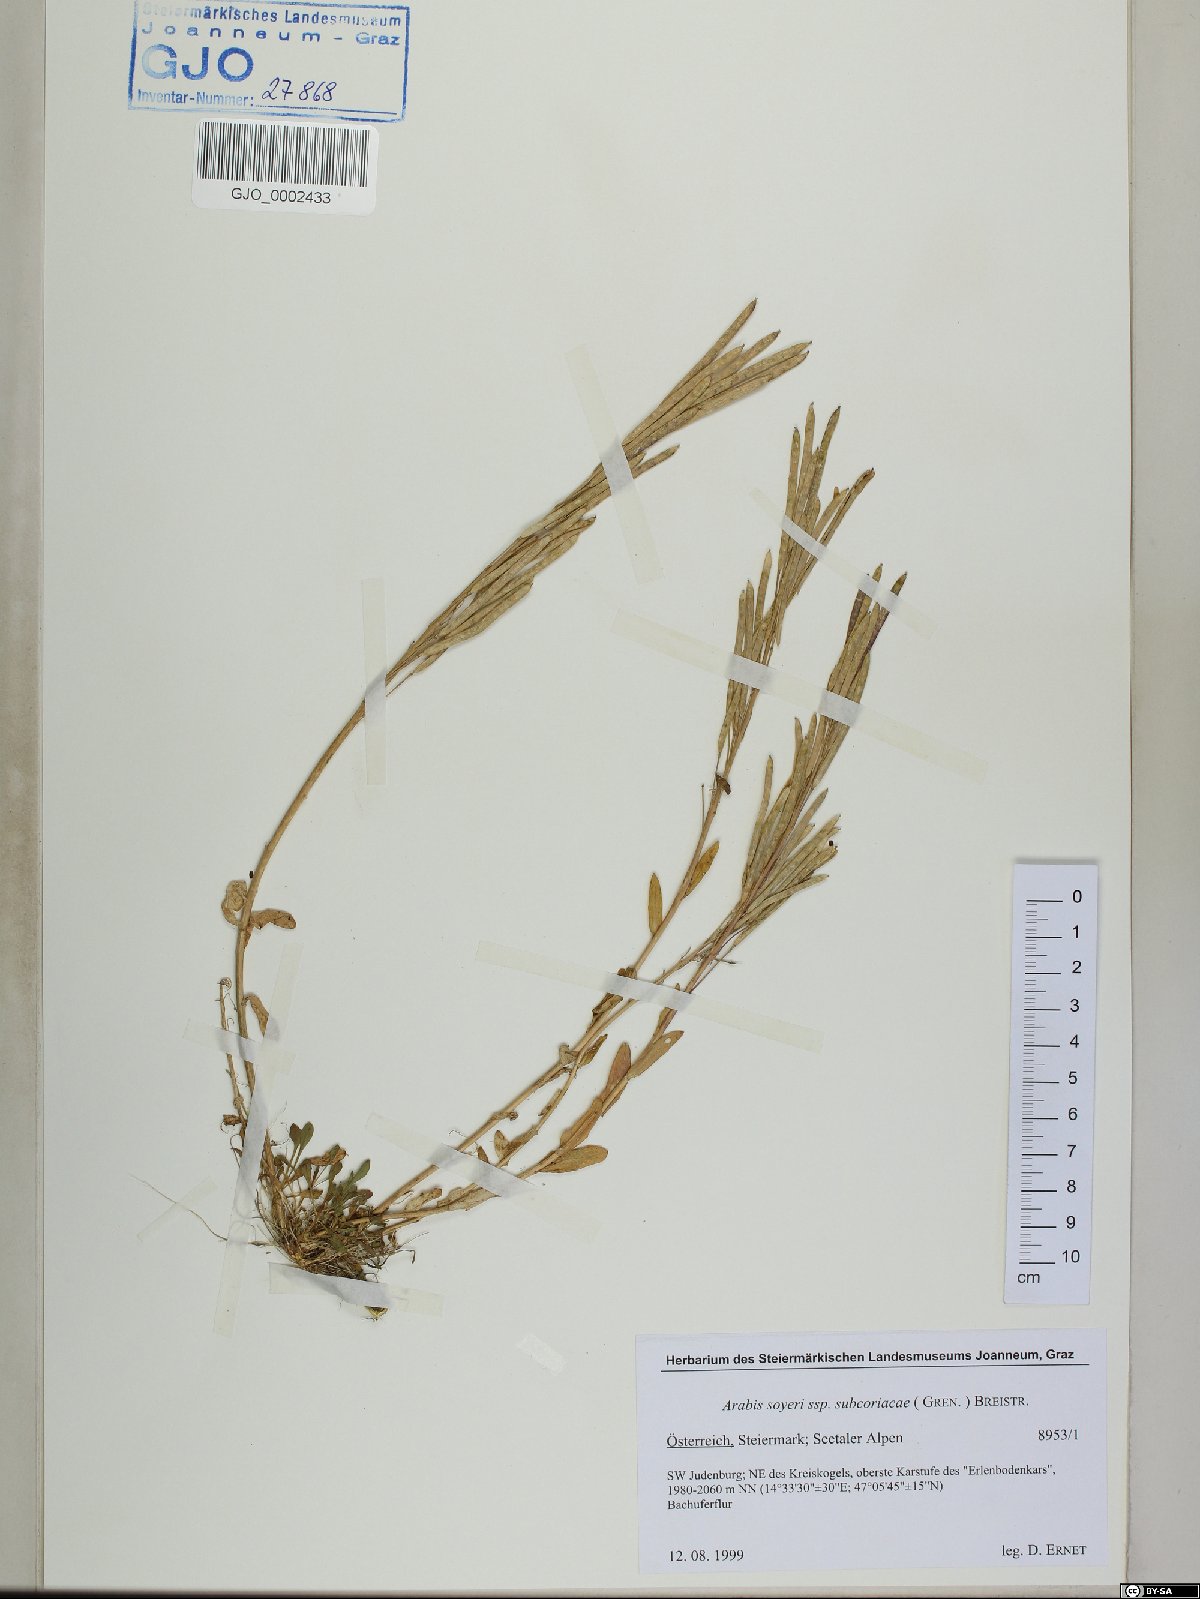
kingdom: Plantae
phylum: Tracheophyta
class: Magnoliopsida
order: Brassicales
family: Brassicaceae
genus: Arabis
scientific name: Arabis soyeri
